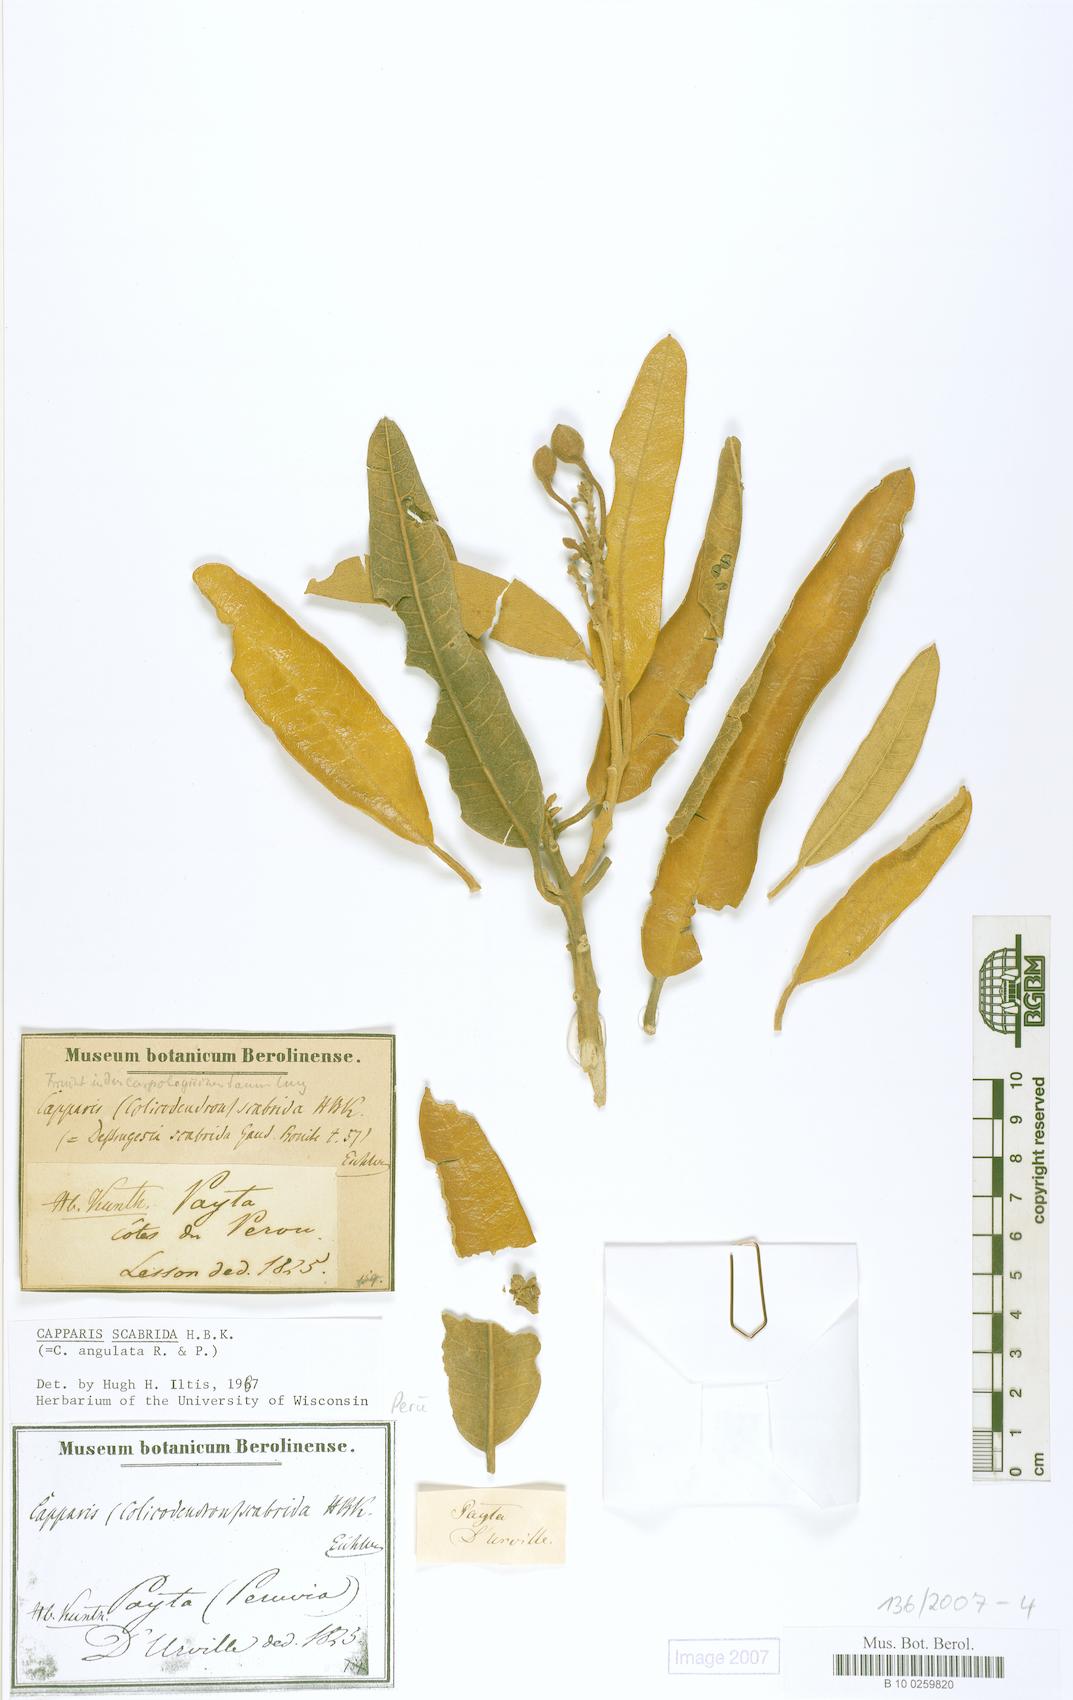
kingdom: Plantae
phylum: Tracheophyta
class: Magnoliopsida
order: Brassicales
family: Capparaceae
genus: Colicodendron
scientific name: Colicodendron scabridum
